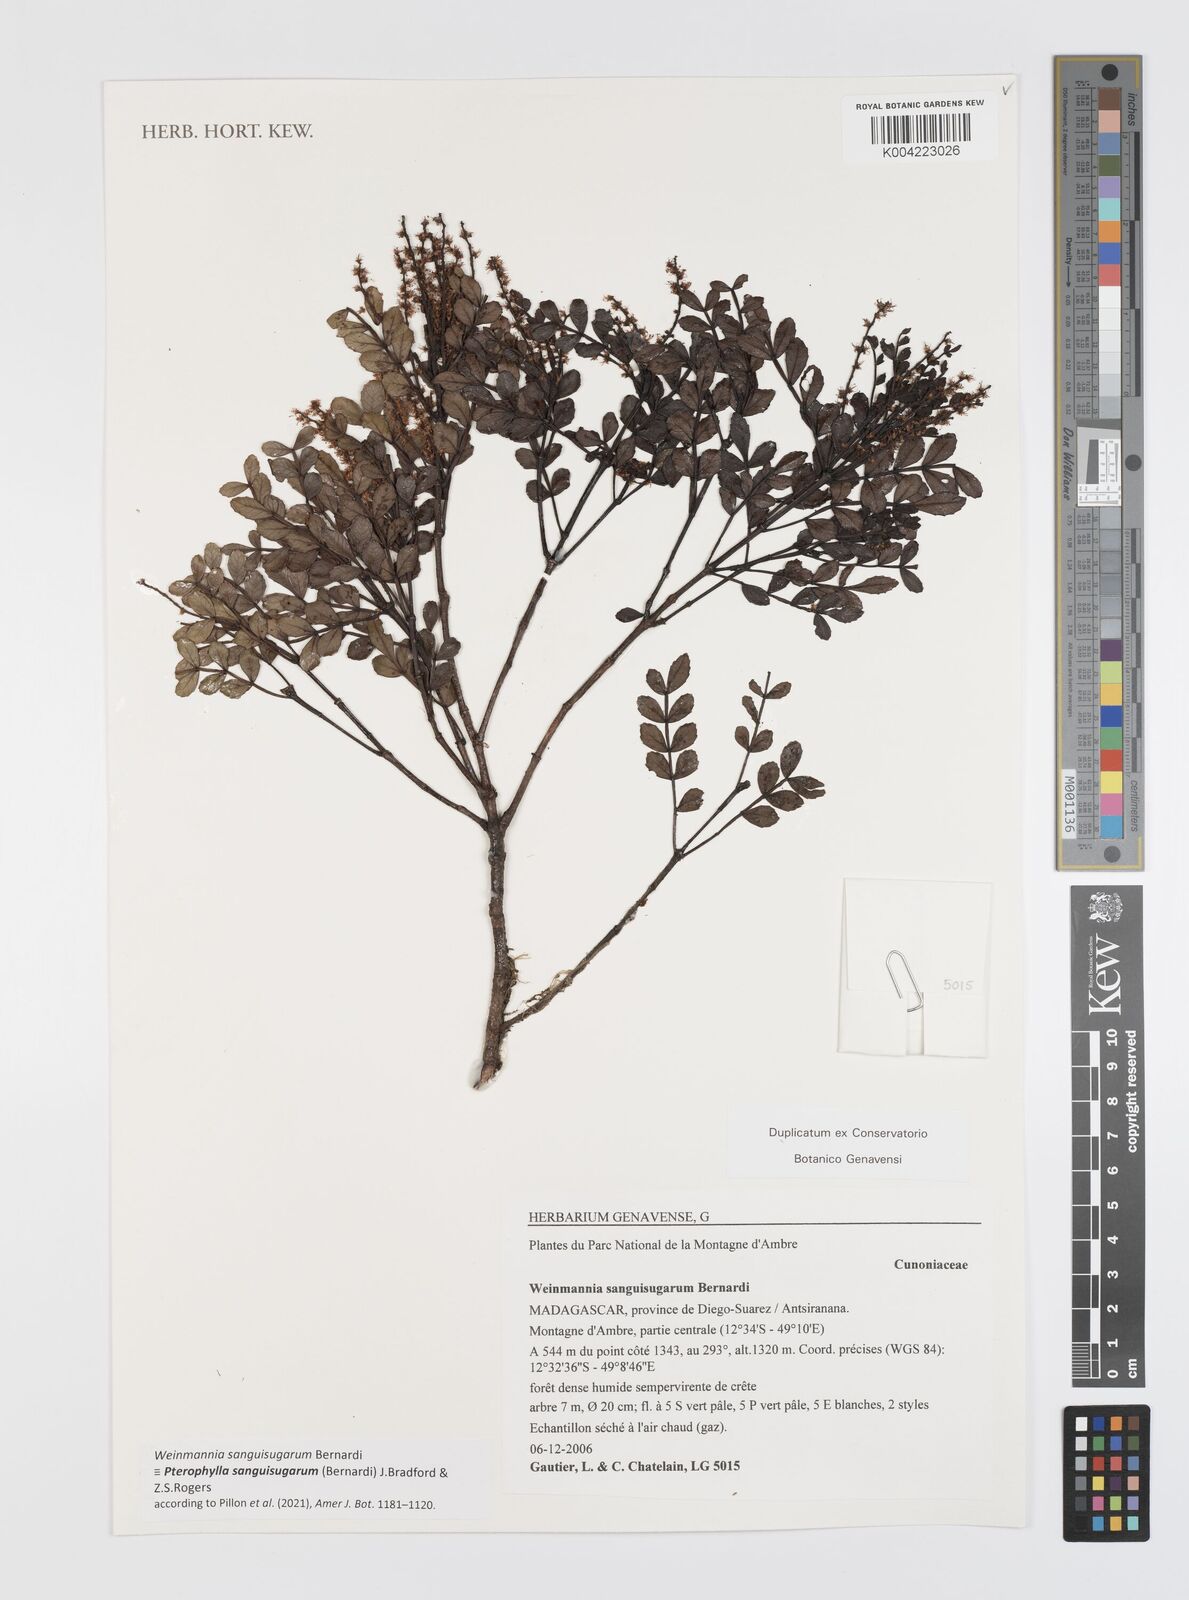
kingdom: Plantae
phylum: Tracheophyta
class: Magnoliopsida
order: Oxalidales
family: Cunoniaceae
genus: Pterophylla
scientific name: Pterophylla sanguisugarum
